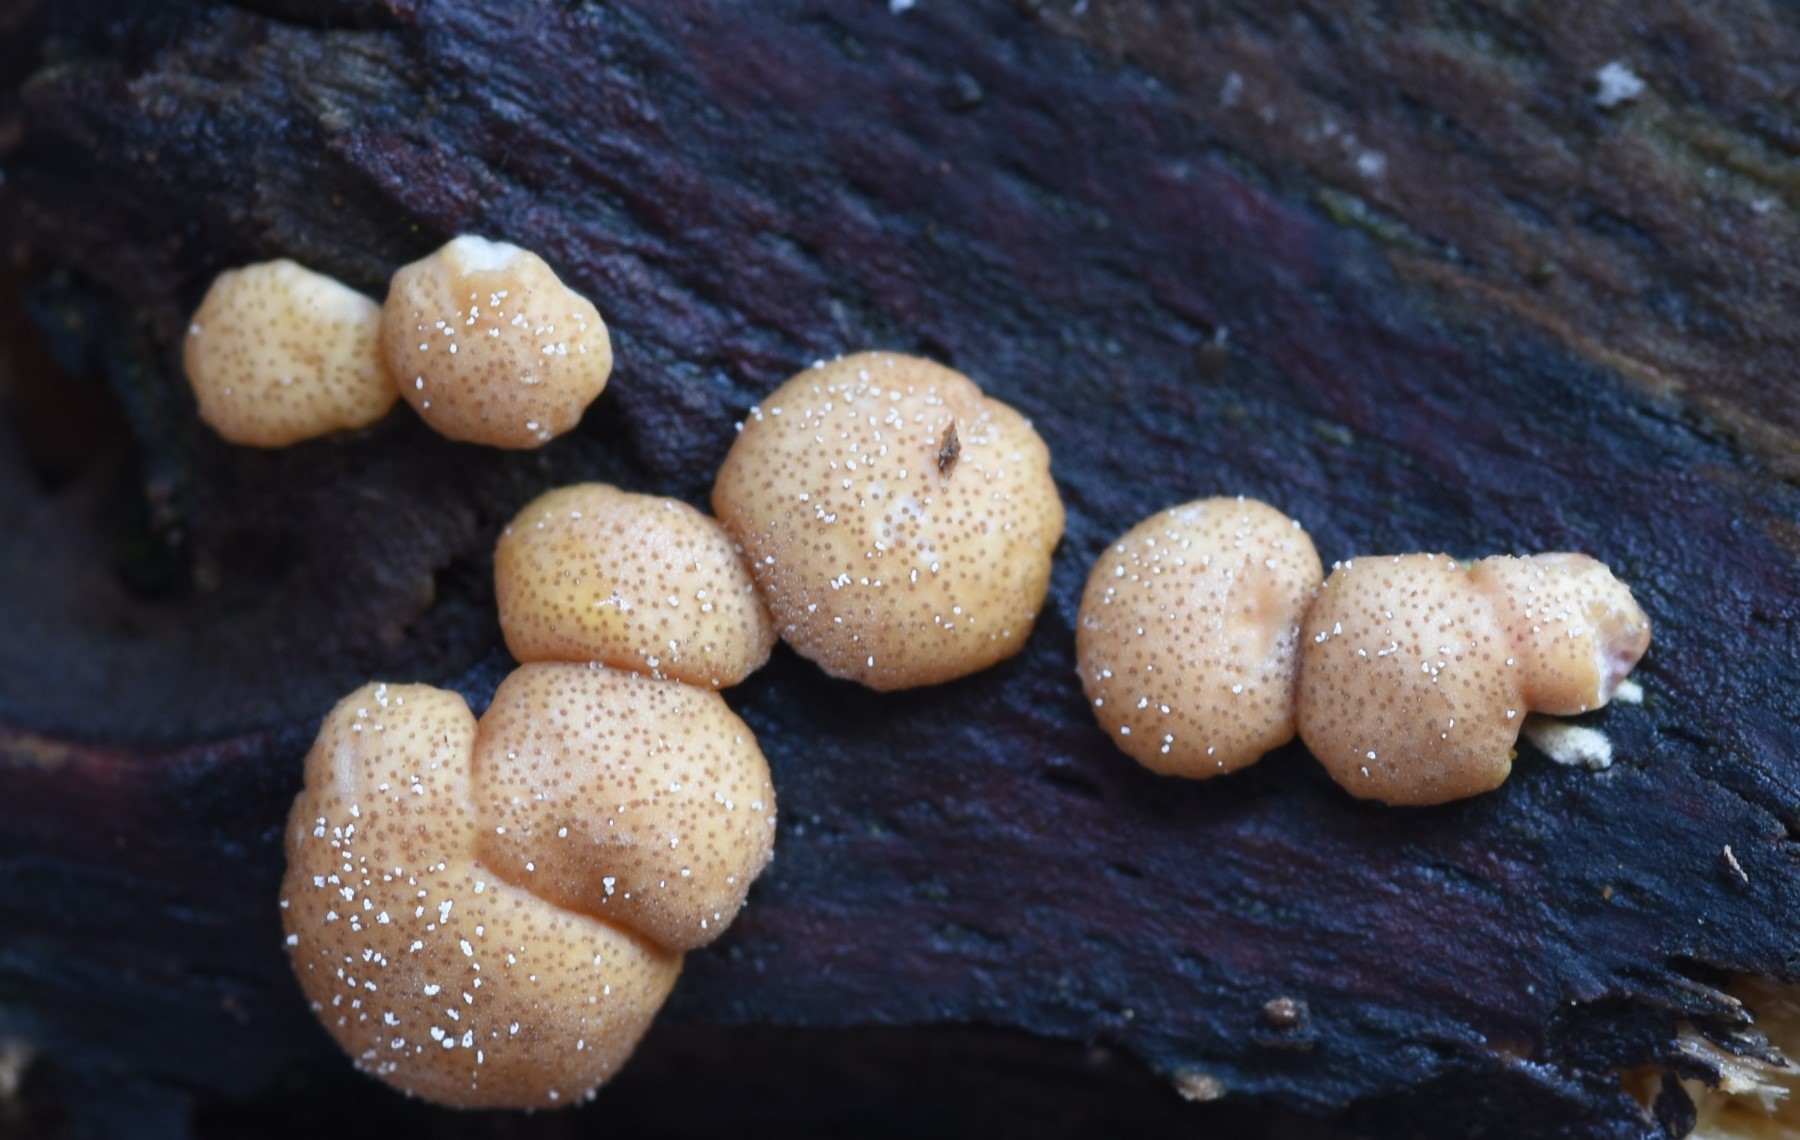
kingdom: Fungi
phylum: Ascomycota
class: Sordariomycetes
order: Hypocreales
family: Hypocreaceae
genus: Trichoderma
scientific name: Trichoderma europaeum
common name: rosabrun kødkerne
